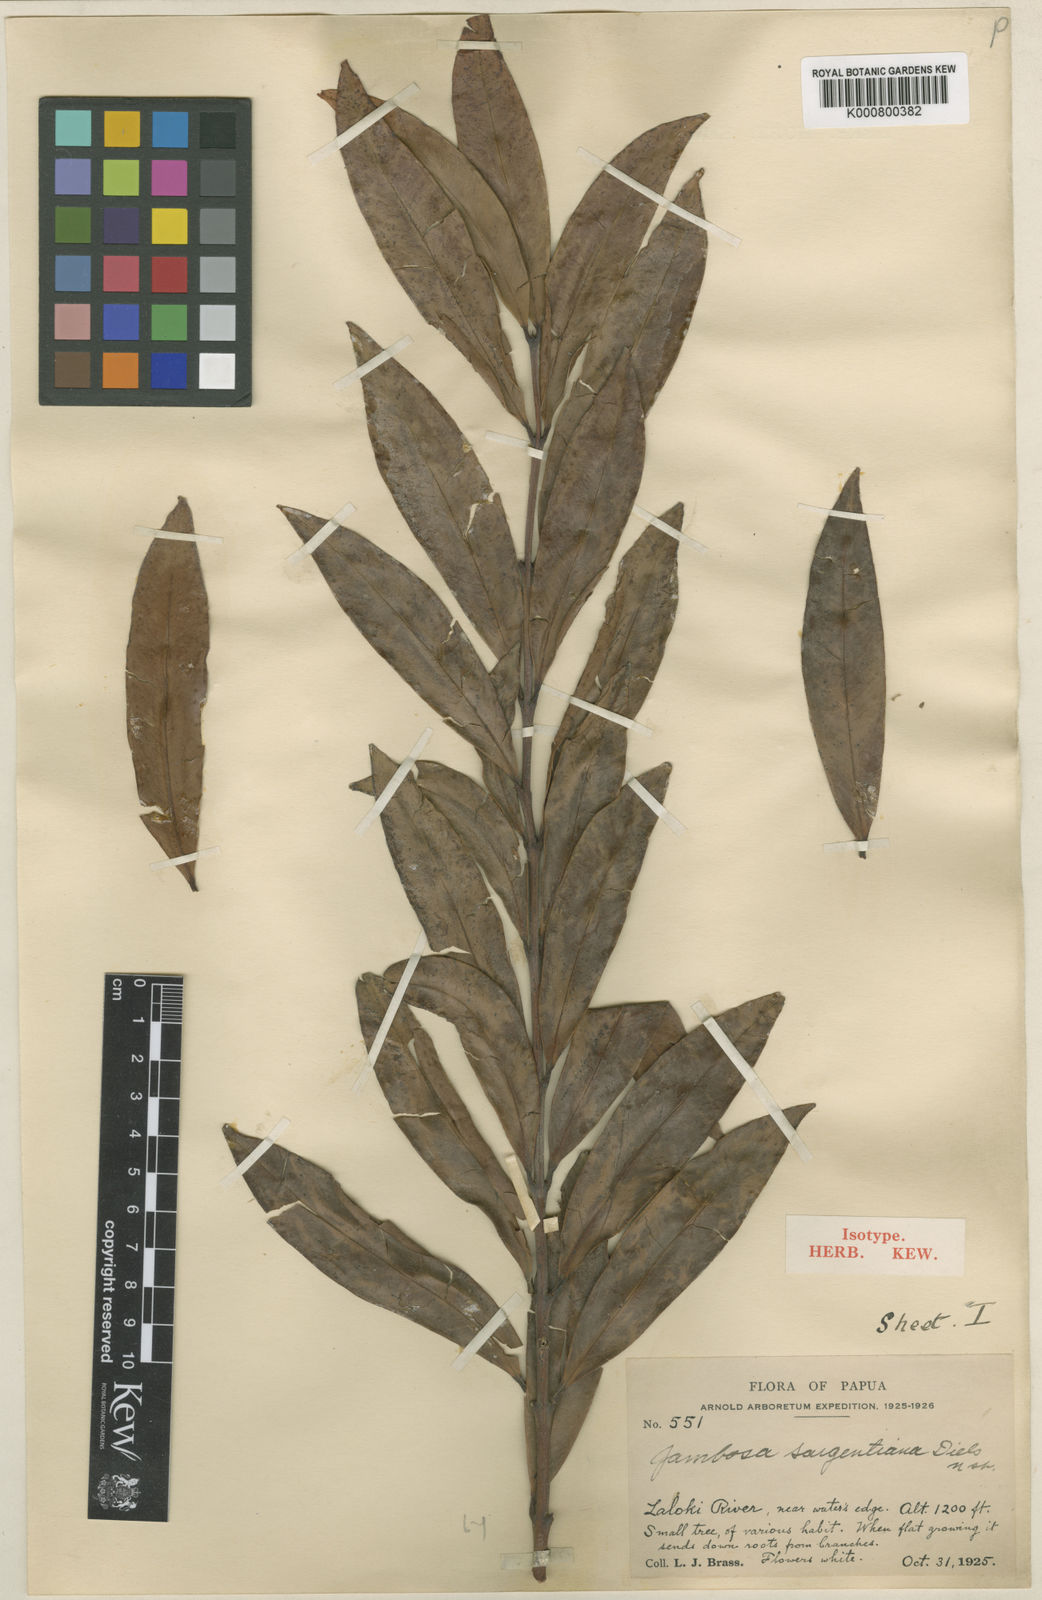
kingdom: Plantae
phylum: Tracheophyta
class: Magnoliopsida
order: Myrtales
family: Myrtaceae
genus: Syzygium
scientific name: Syzygium coalitum
